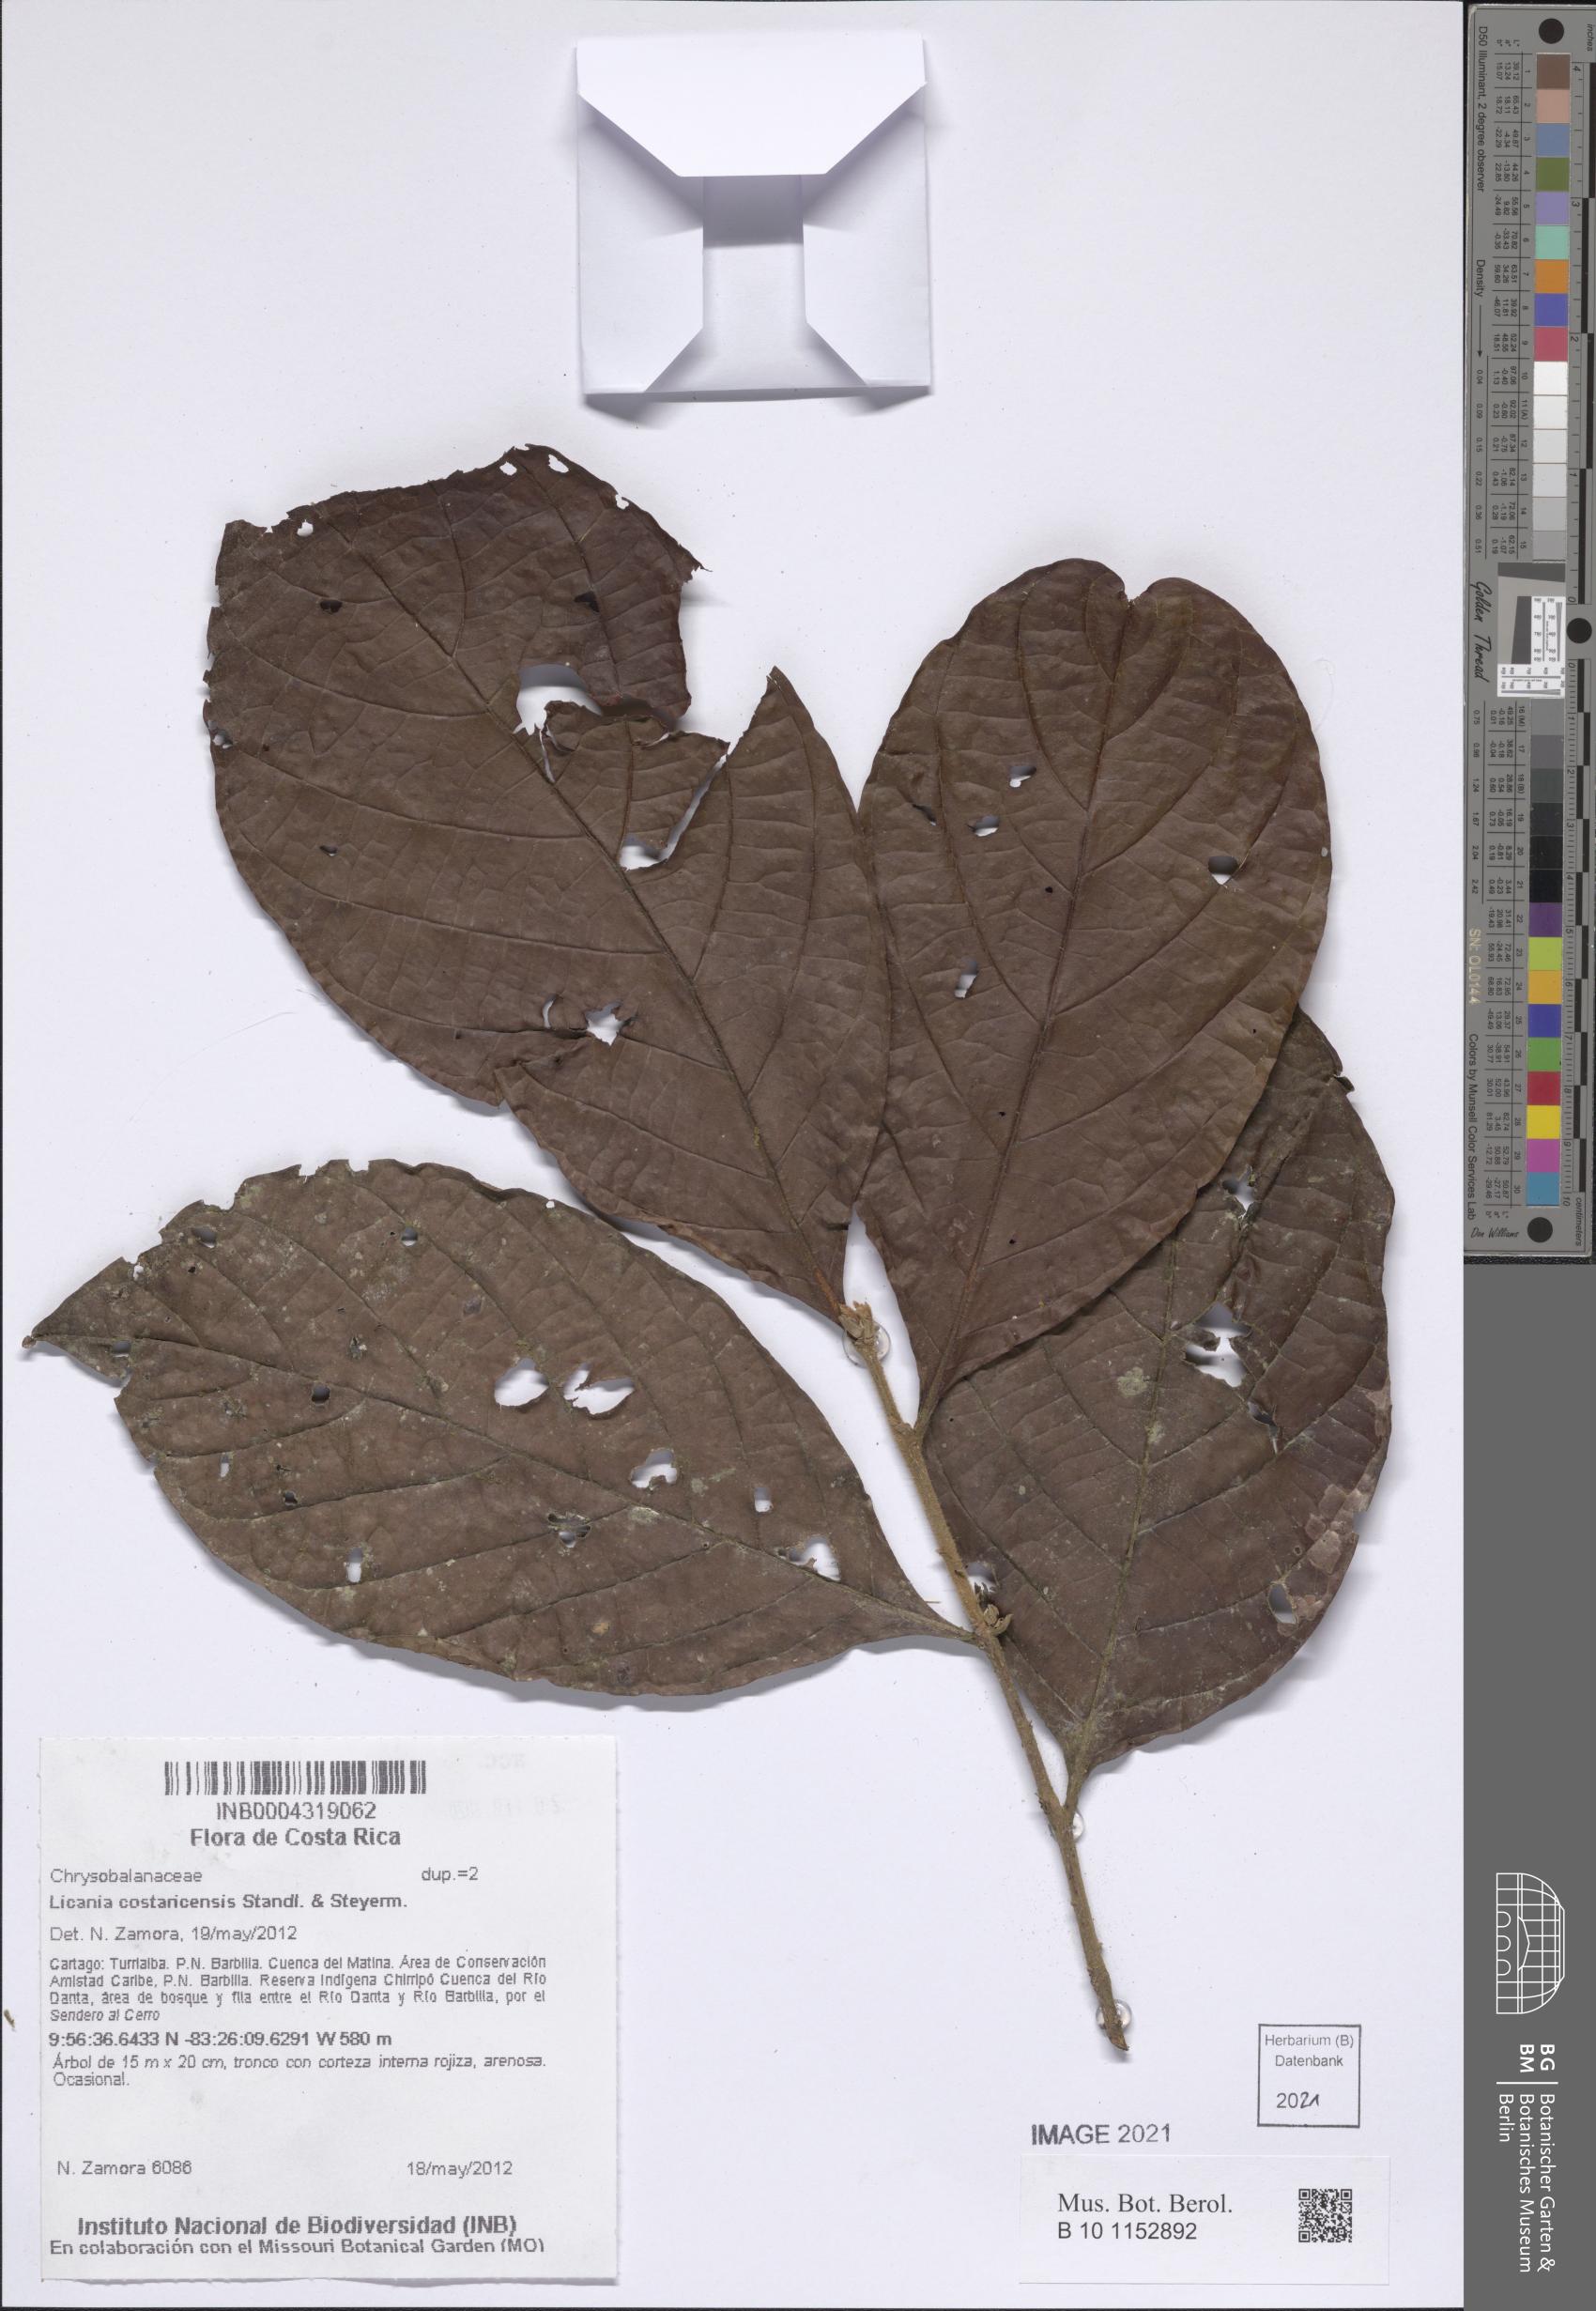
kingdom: Plantae
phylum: Tracheophyta
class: Magnoliopsida
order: Malpighiales
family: Chrysobalanaceae
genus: Hymenopus
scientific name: Hymenopus costaricensis
